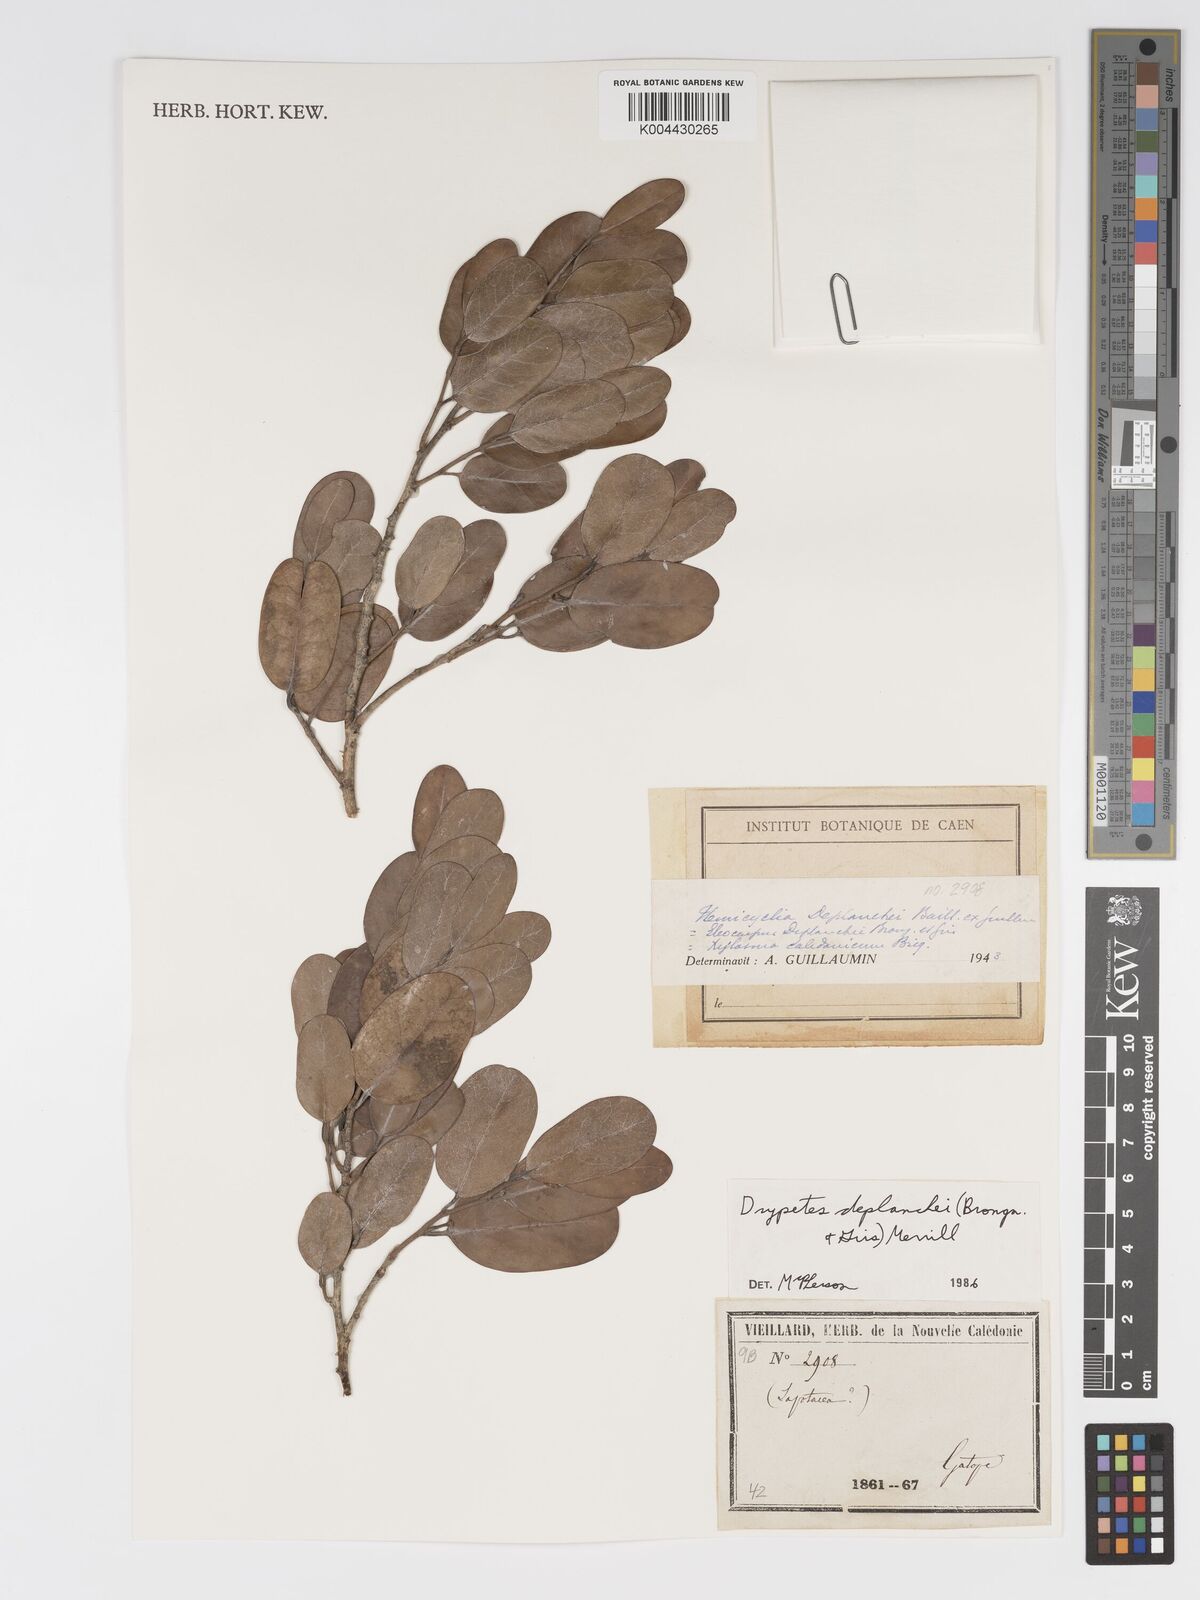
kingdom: Plantae
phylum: Tracheophyta
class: Magnoliopsida
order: Malpighiales
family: Putranjivaceae
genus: Drypetes
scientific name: Drypetes deplanchei
